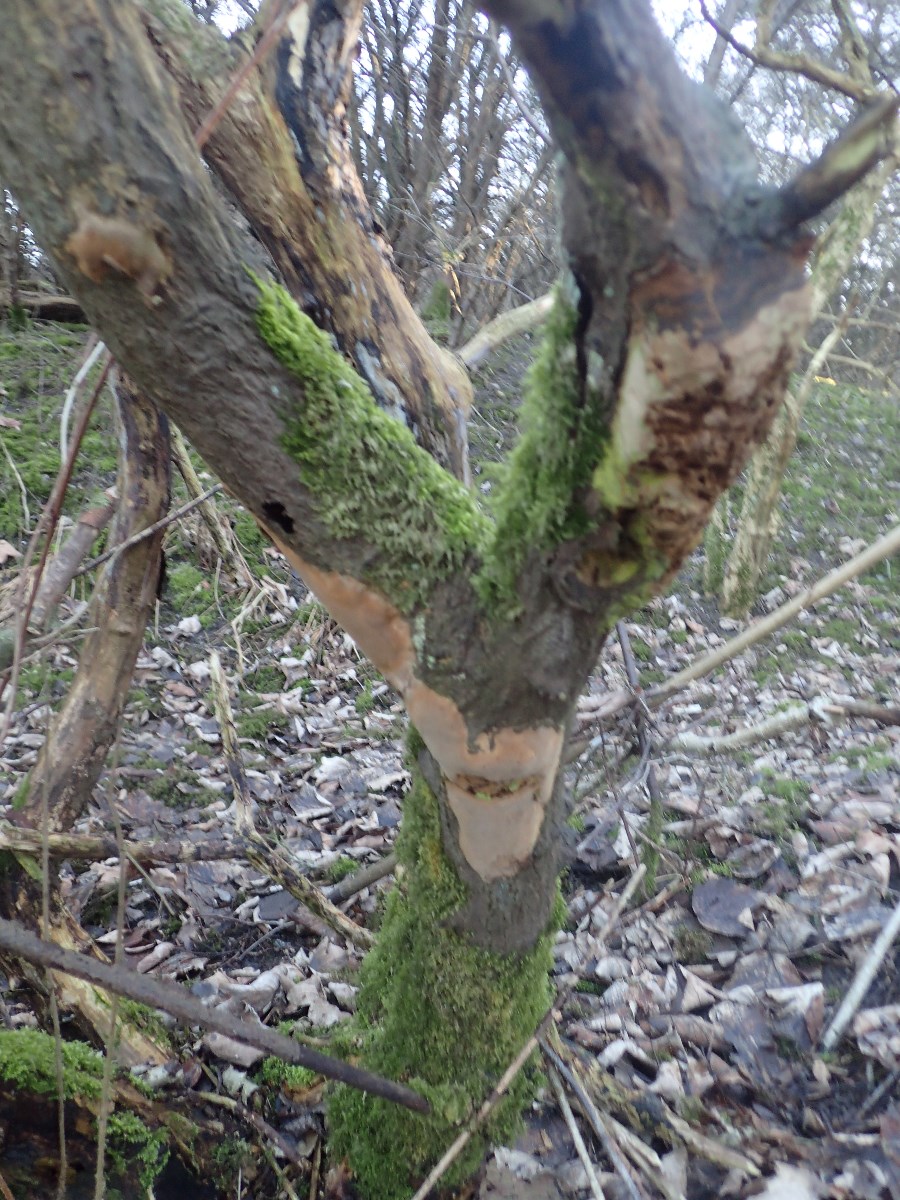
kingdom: Fungi
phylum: Basidiomycota
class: Agaricomycetes
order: Hymenochaetales
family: Hymenochaetaceae
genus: Fomitiporia
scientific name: Fomitiporia punctata
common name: pude-ildporesvamp
